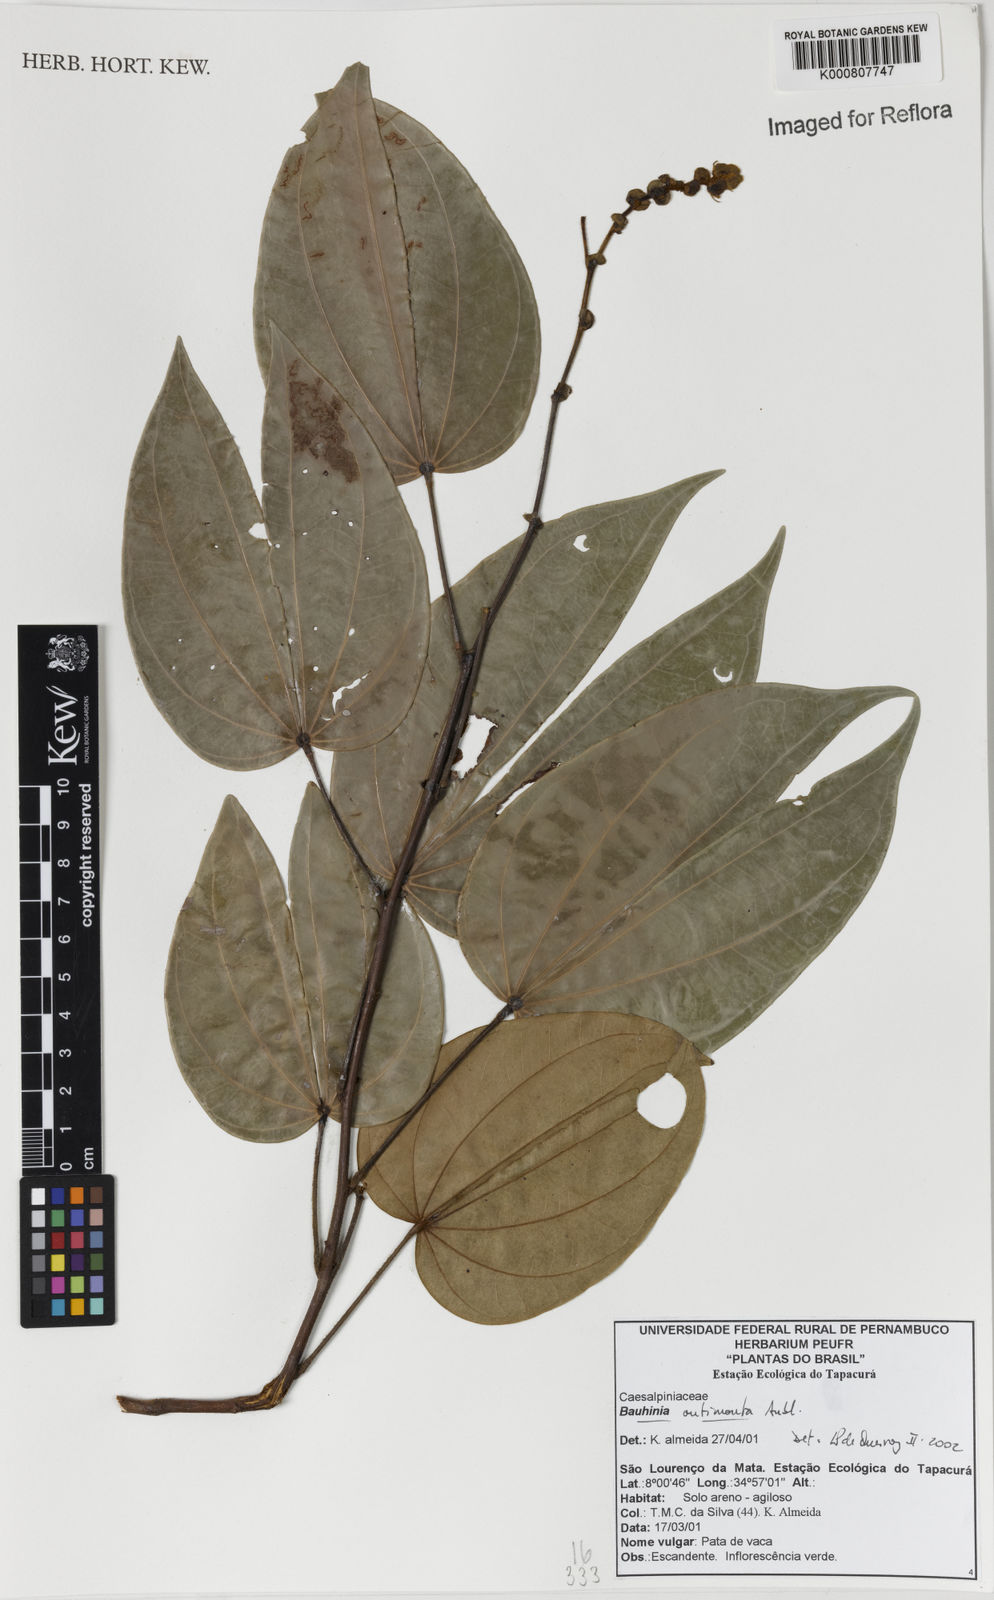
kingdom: Plantae
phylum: Tracheophyta
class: Magnoliopsida
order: Fabales
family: Fabaceae
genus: Schnella
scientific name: Schnella outimouta
